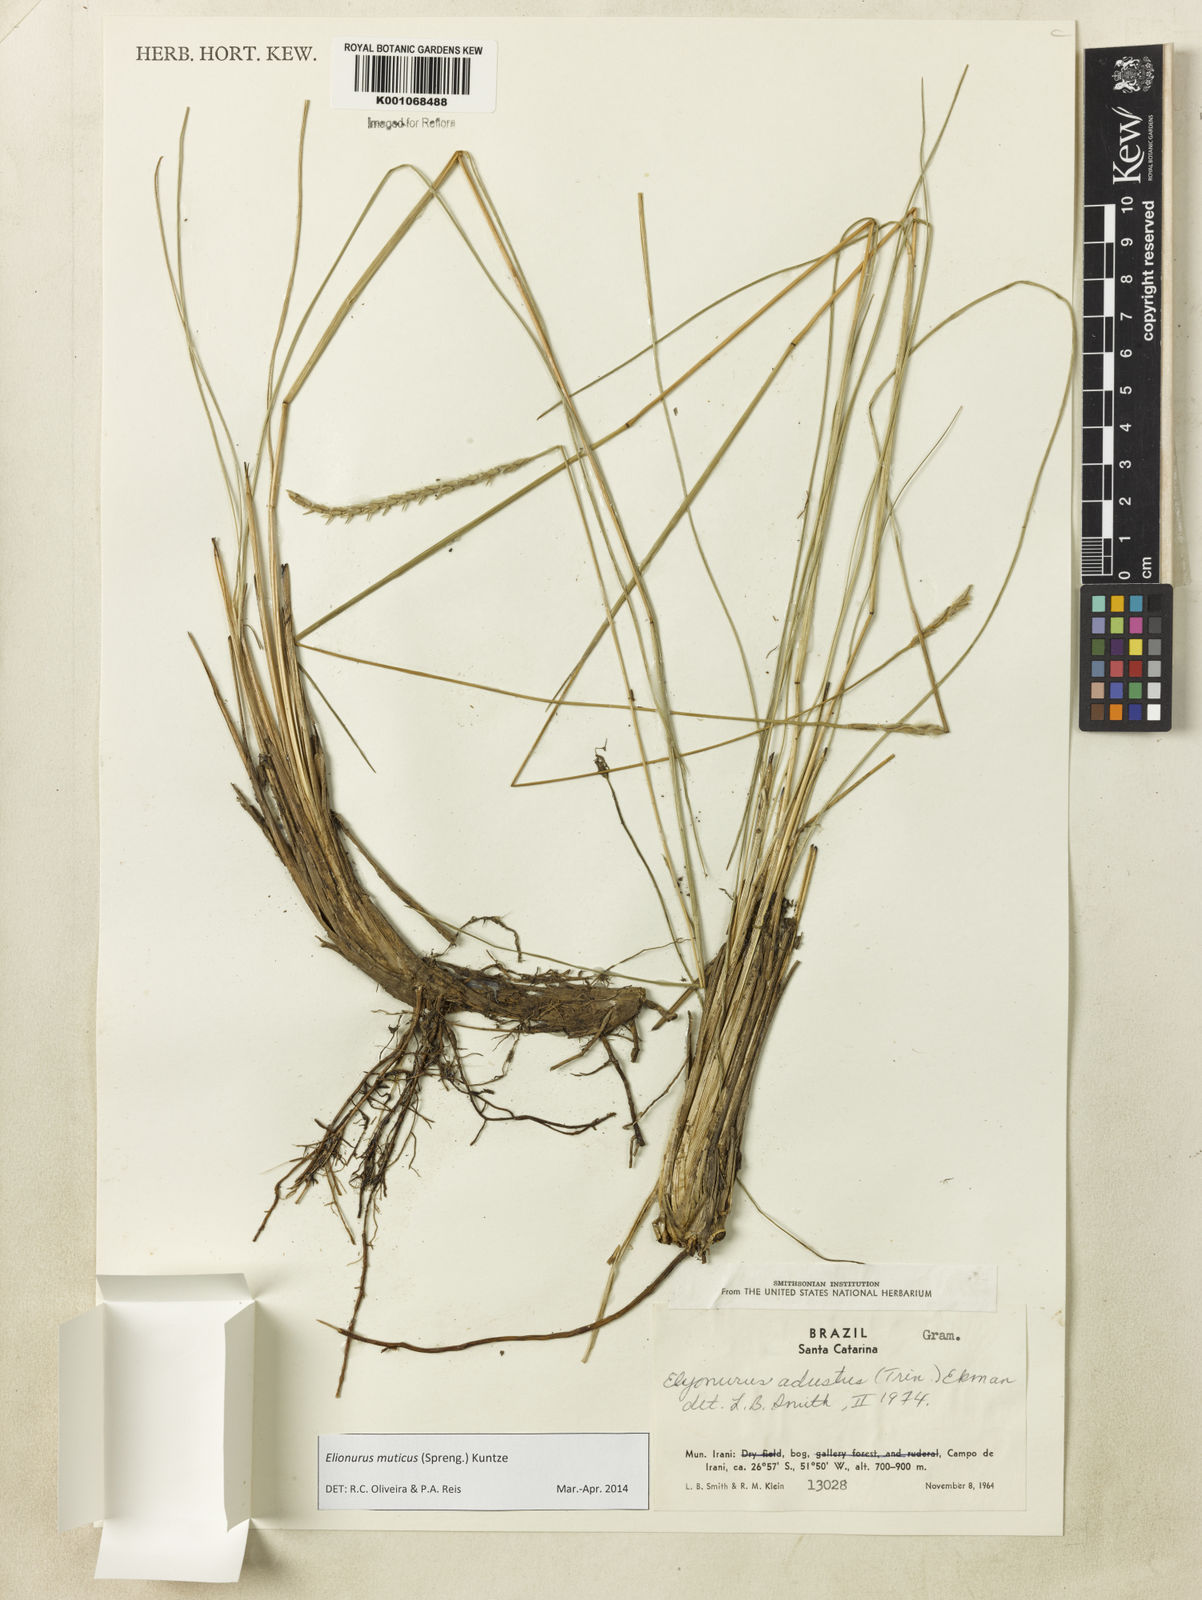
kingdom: Plantae
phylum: Tracheophyta
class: Liliopsida
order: Poales
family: Poaceae
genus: Elionurus
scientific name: Elionurus muticus
